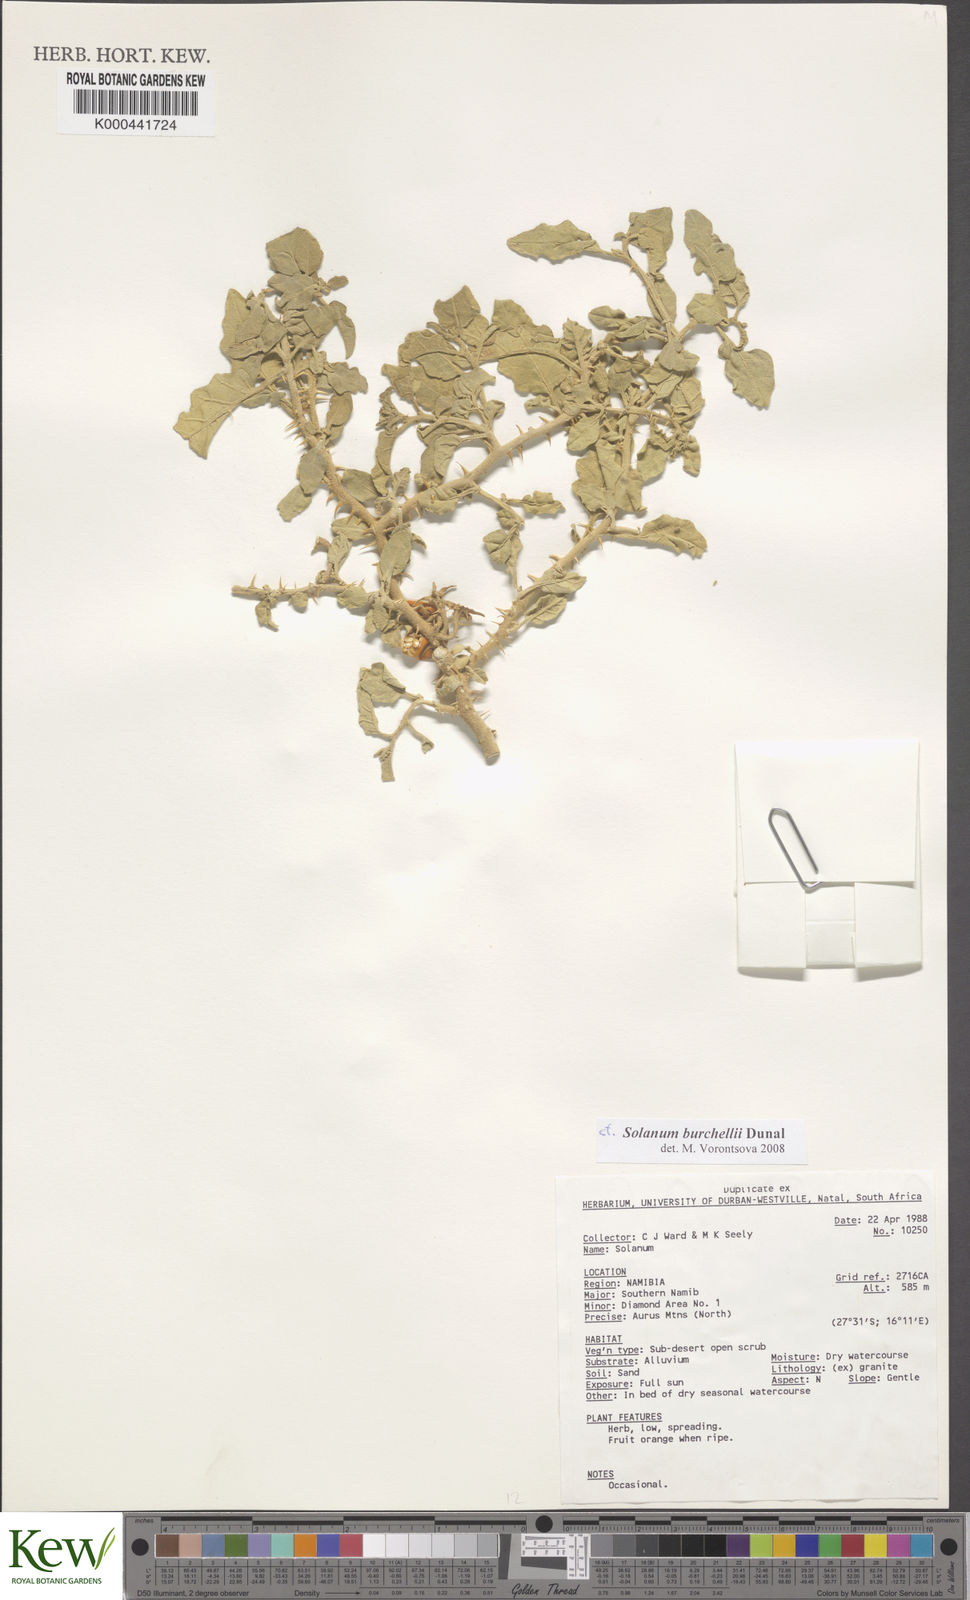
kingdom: Plantae
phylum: Tracheophyta
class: Magnoliopsida
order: Solanales
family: Solanaceae
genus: Solanum
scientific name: Solanum burchellii
